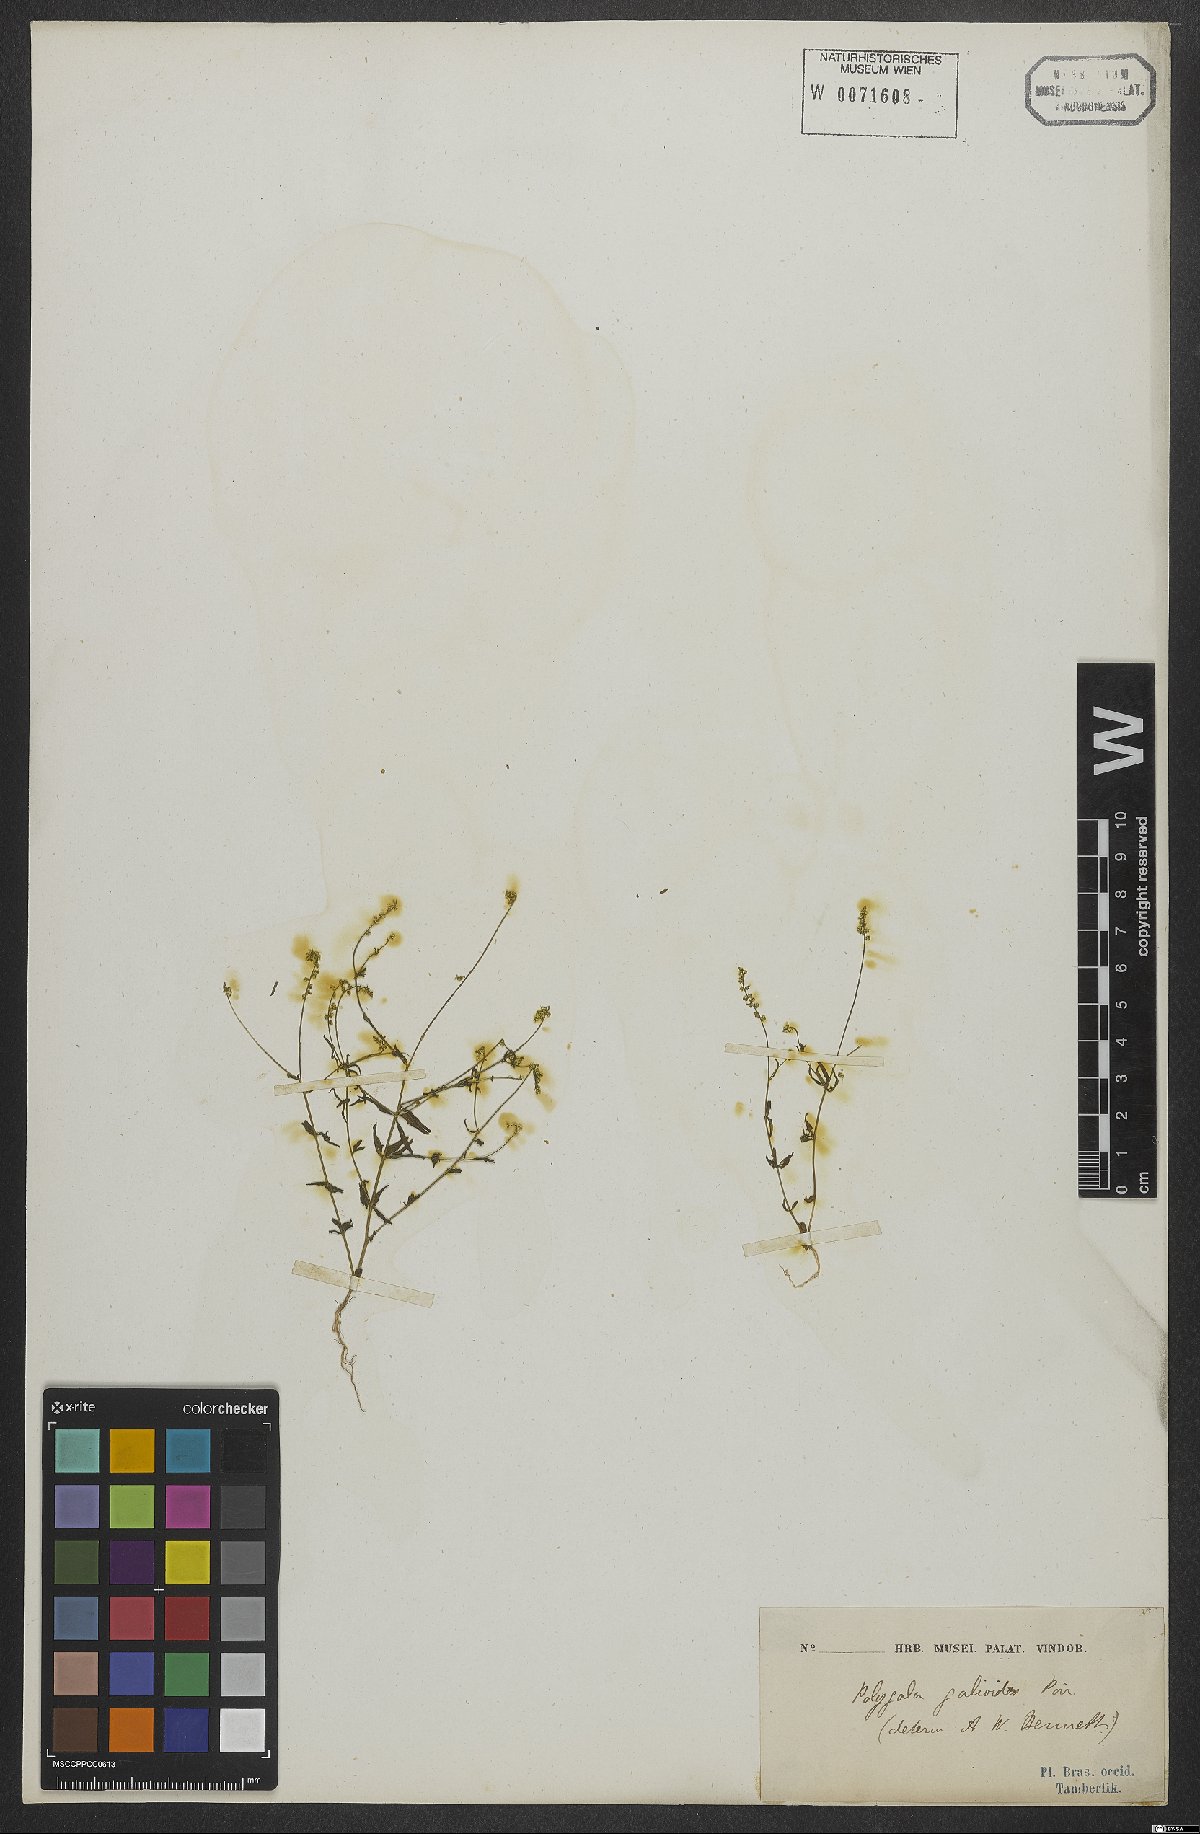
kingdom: Plantae
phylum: Tracheophyta
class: Magnoliopsida
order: Fabales
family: Polygalaceae
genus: Polygala
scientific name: Polygala galioides
